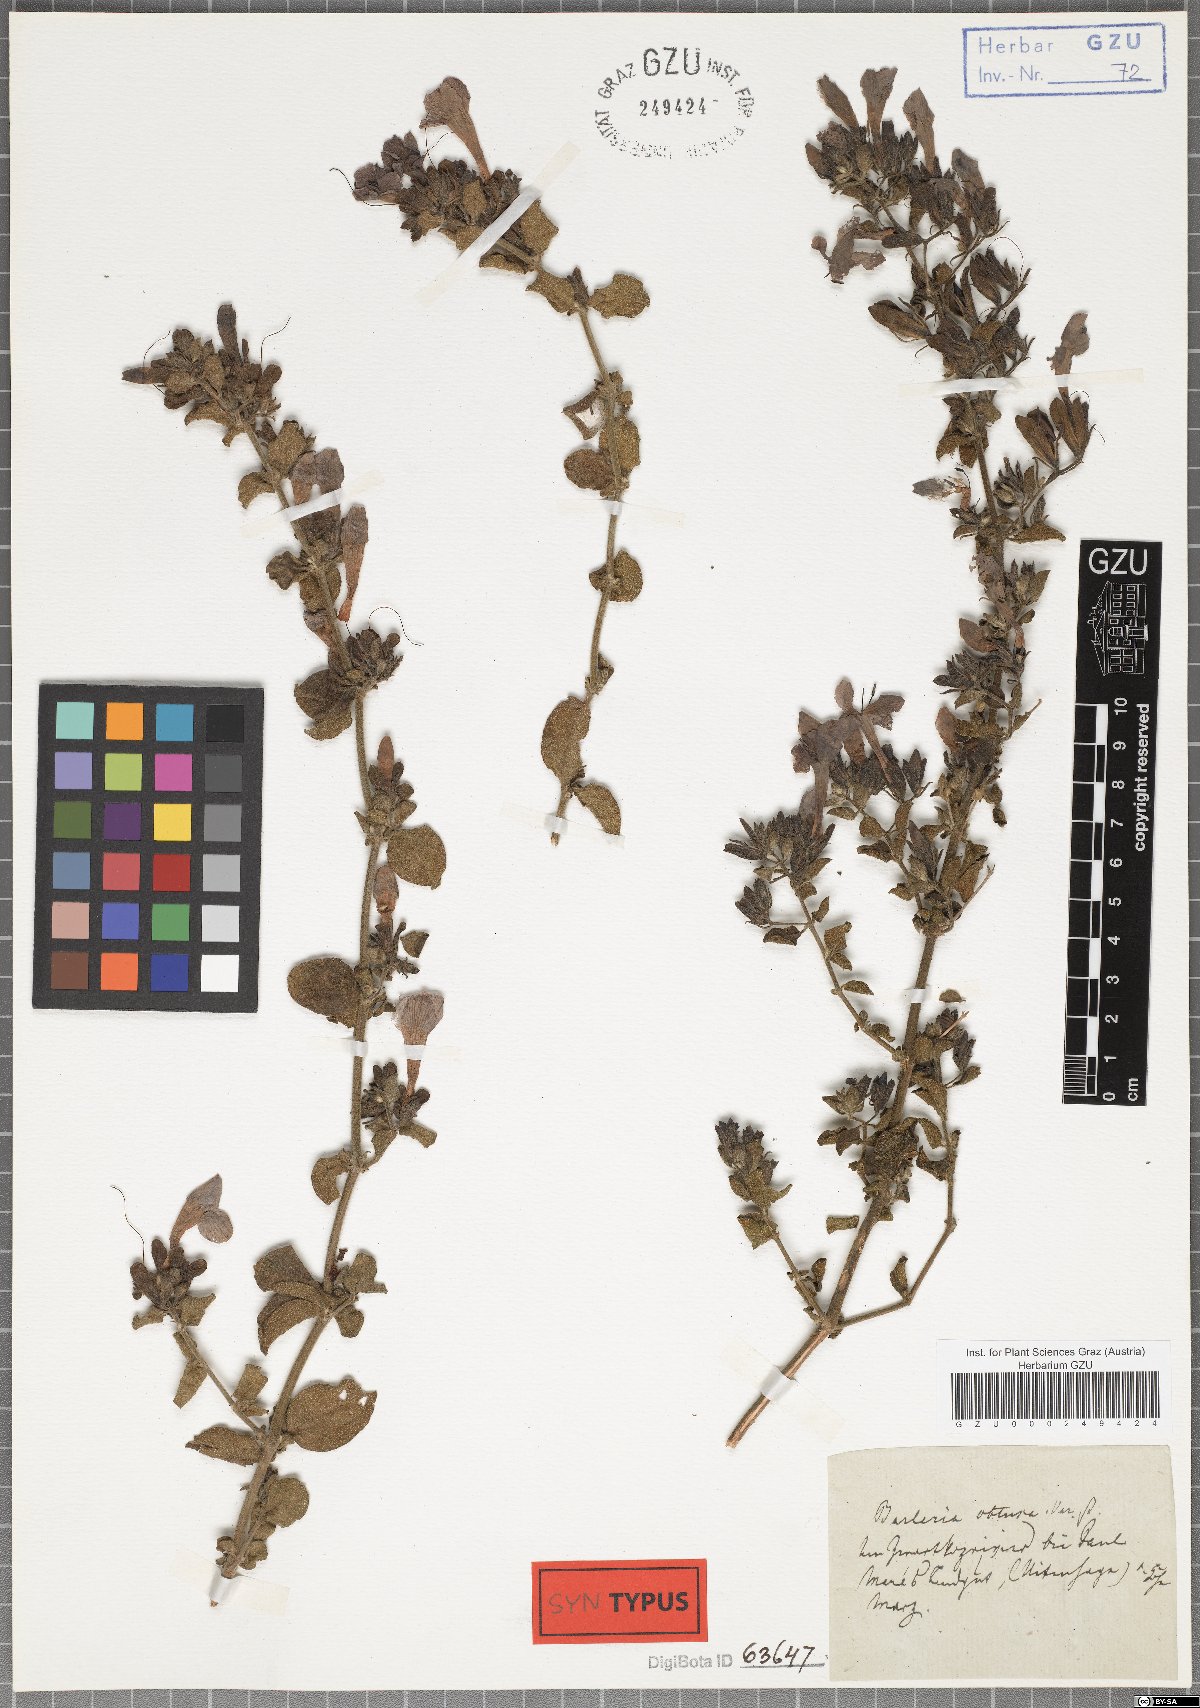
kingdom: Plantae
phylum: Tracheophyta
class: Magnoliopsida
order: Lamiales
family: Acanthaceae
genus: Barleria
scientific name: Barleria obtusa
